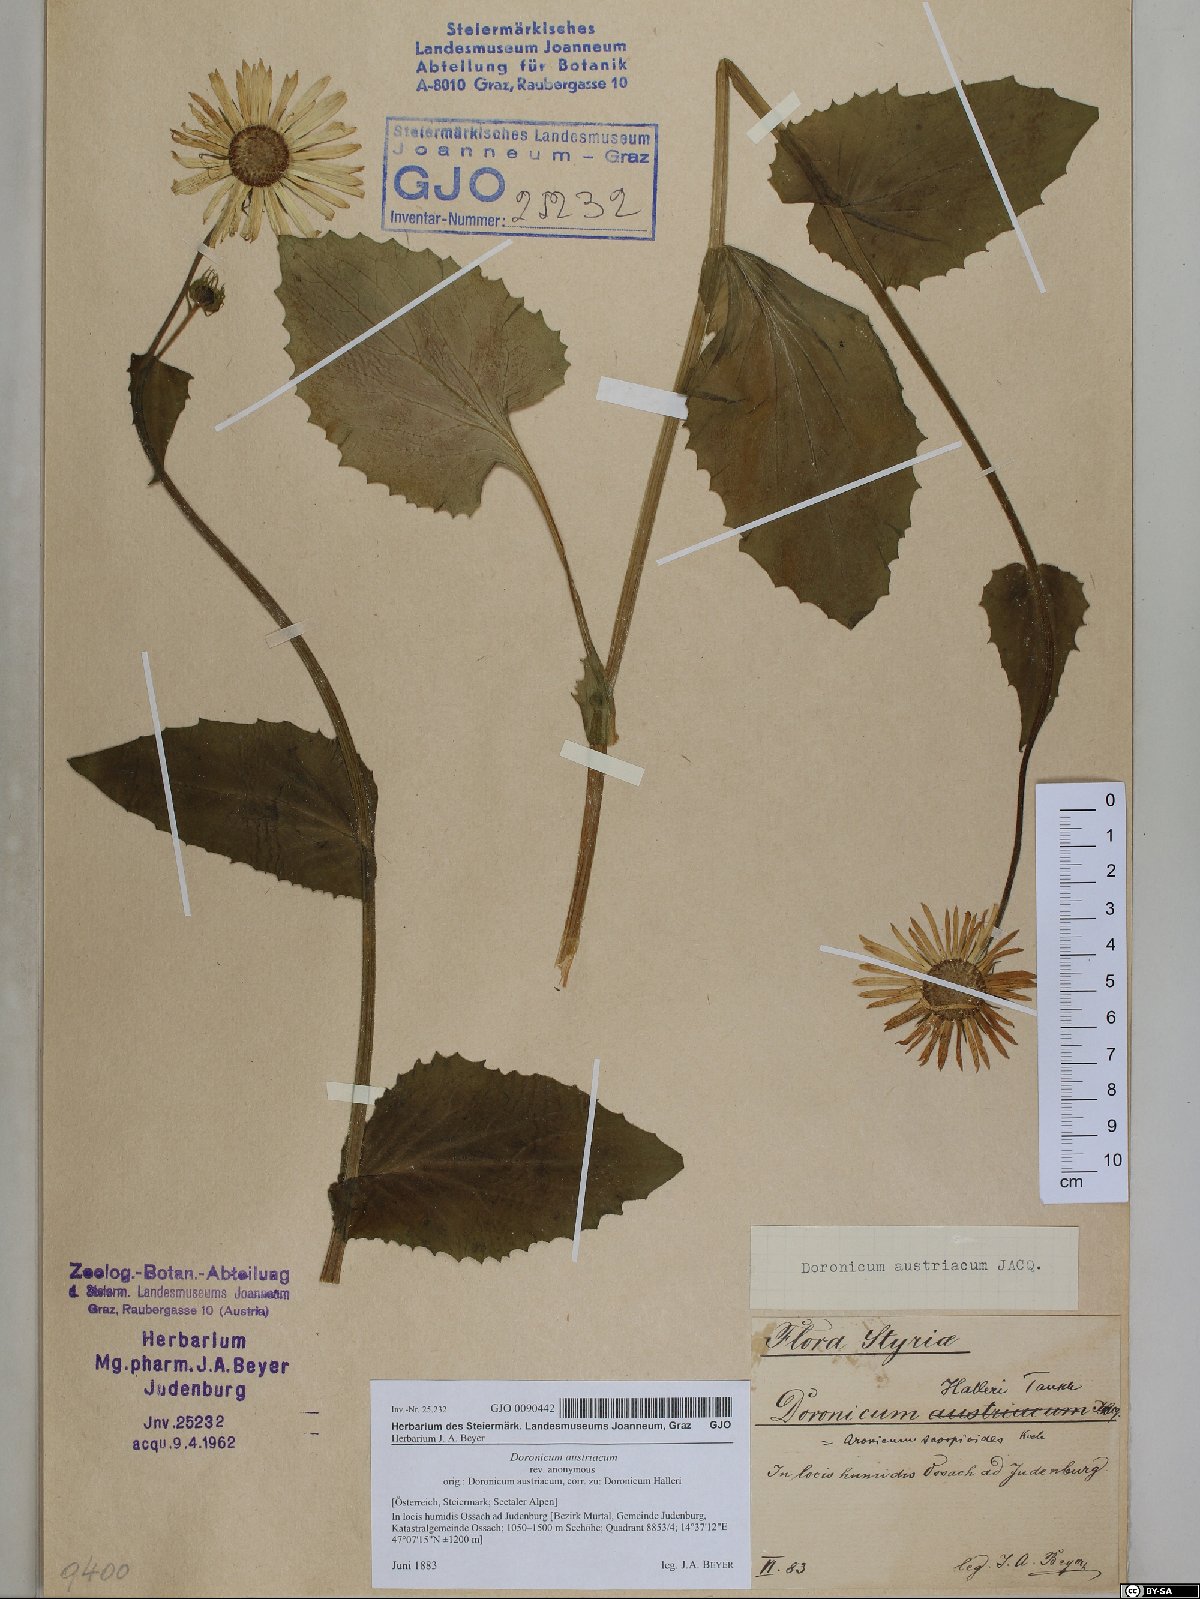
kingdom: Plantae
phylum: Tracheophyta
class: Magnoliopsida
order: Asterales
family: Asteraceae
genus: Doronicum
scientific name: Doronicum austriacum
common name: Austrian leopard's-bane
